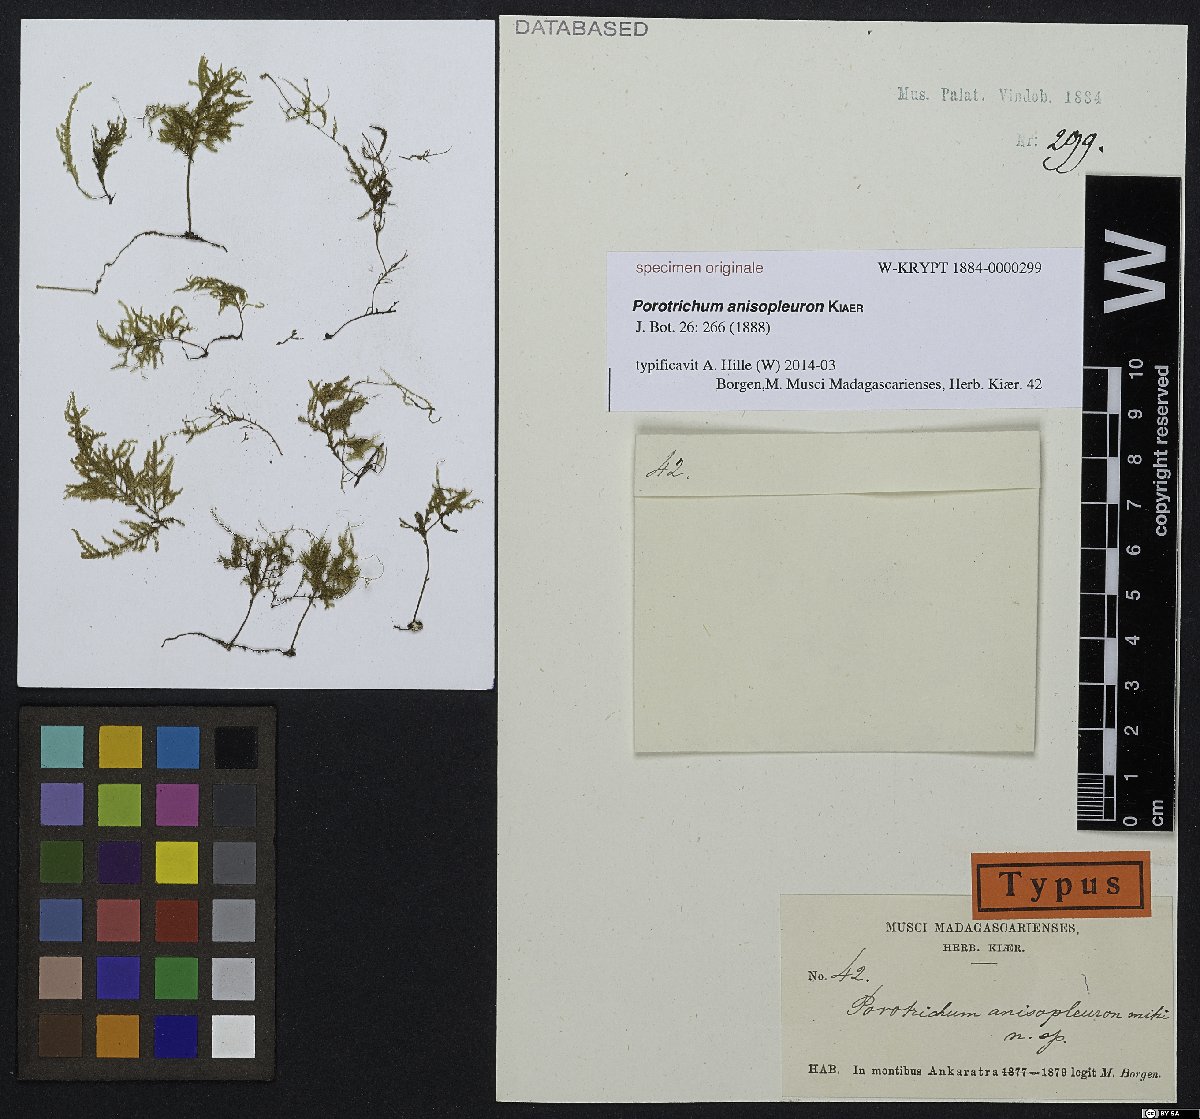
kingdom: Plantae
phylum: Bryophyta
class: Bryopsida
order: Hypnales
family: Orthostichellaceae
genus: Deslooveria
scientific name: Deslooveria usagara
